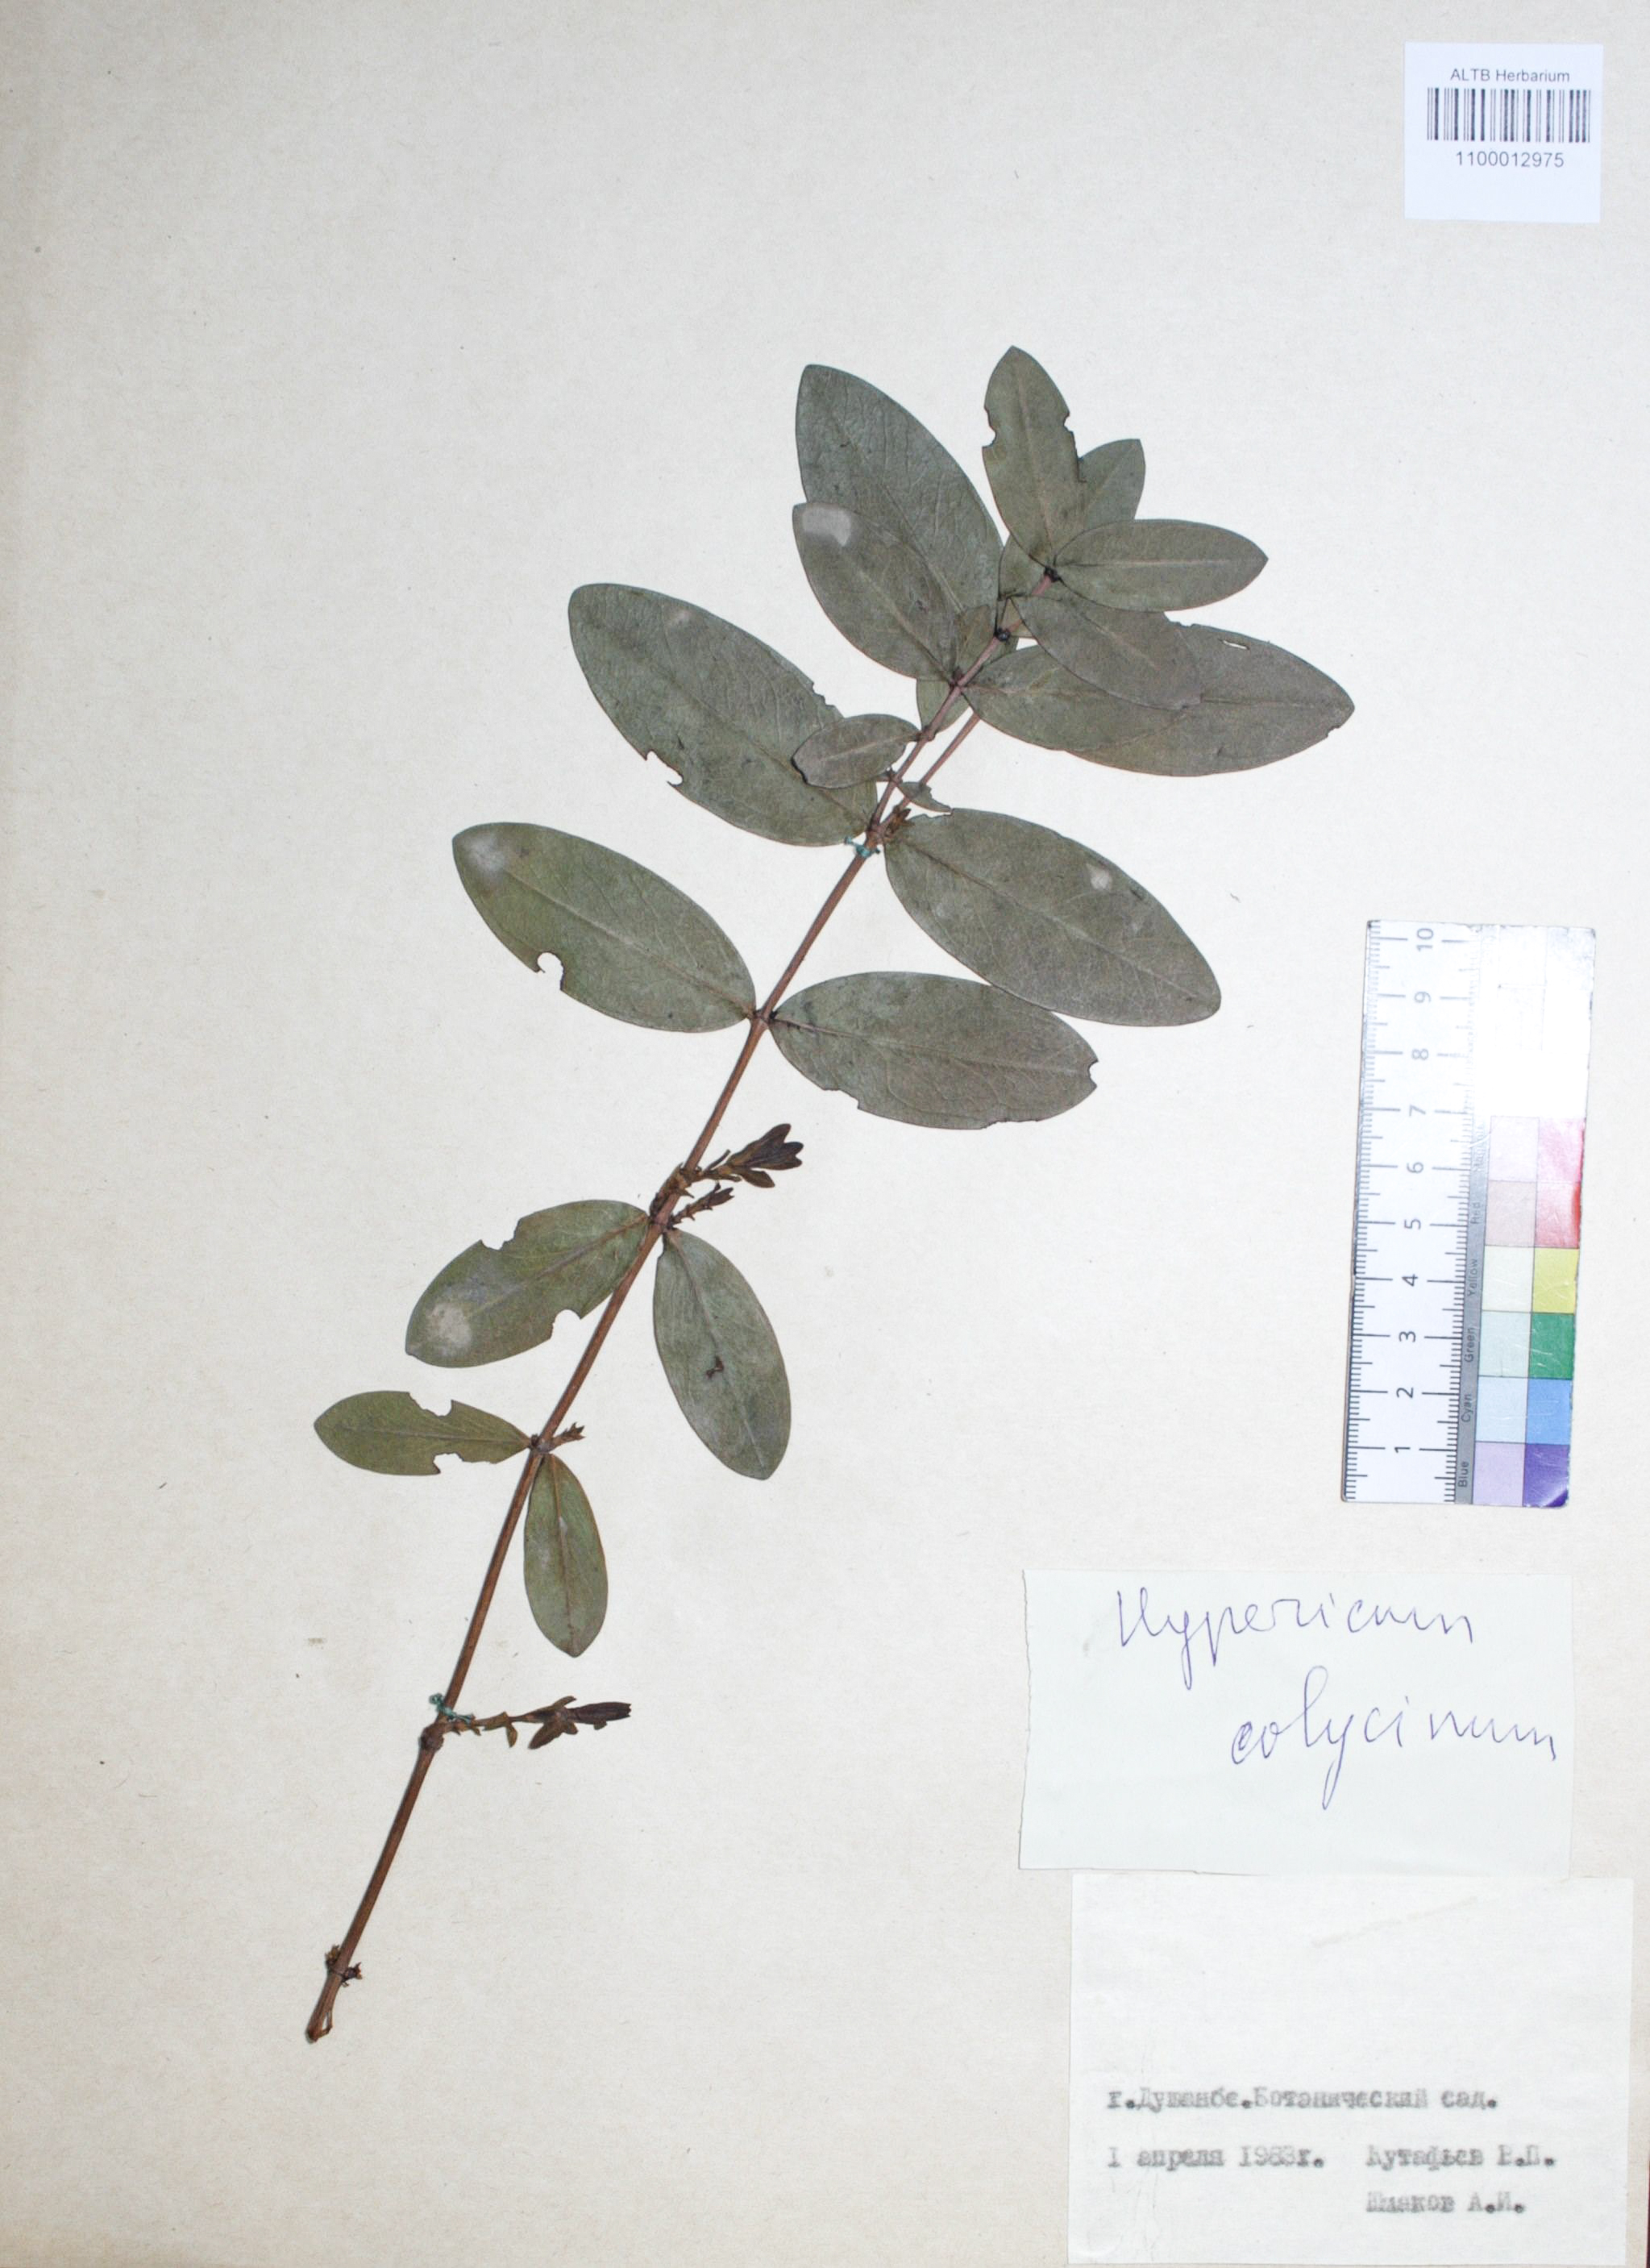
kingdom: Plantae
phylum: Tracheophyta
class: Magnoliopsida
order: Malpighiales
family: Hypericaceae
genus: Hypericum
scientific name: Hypericum calycinum
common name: Rose-of-sharon
